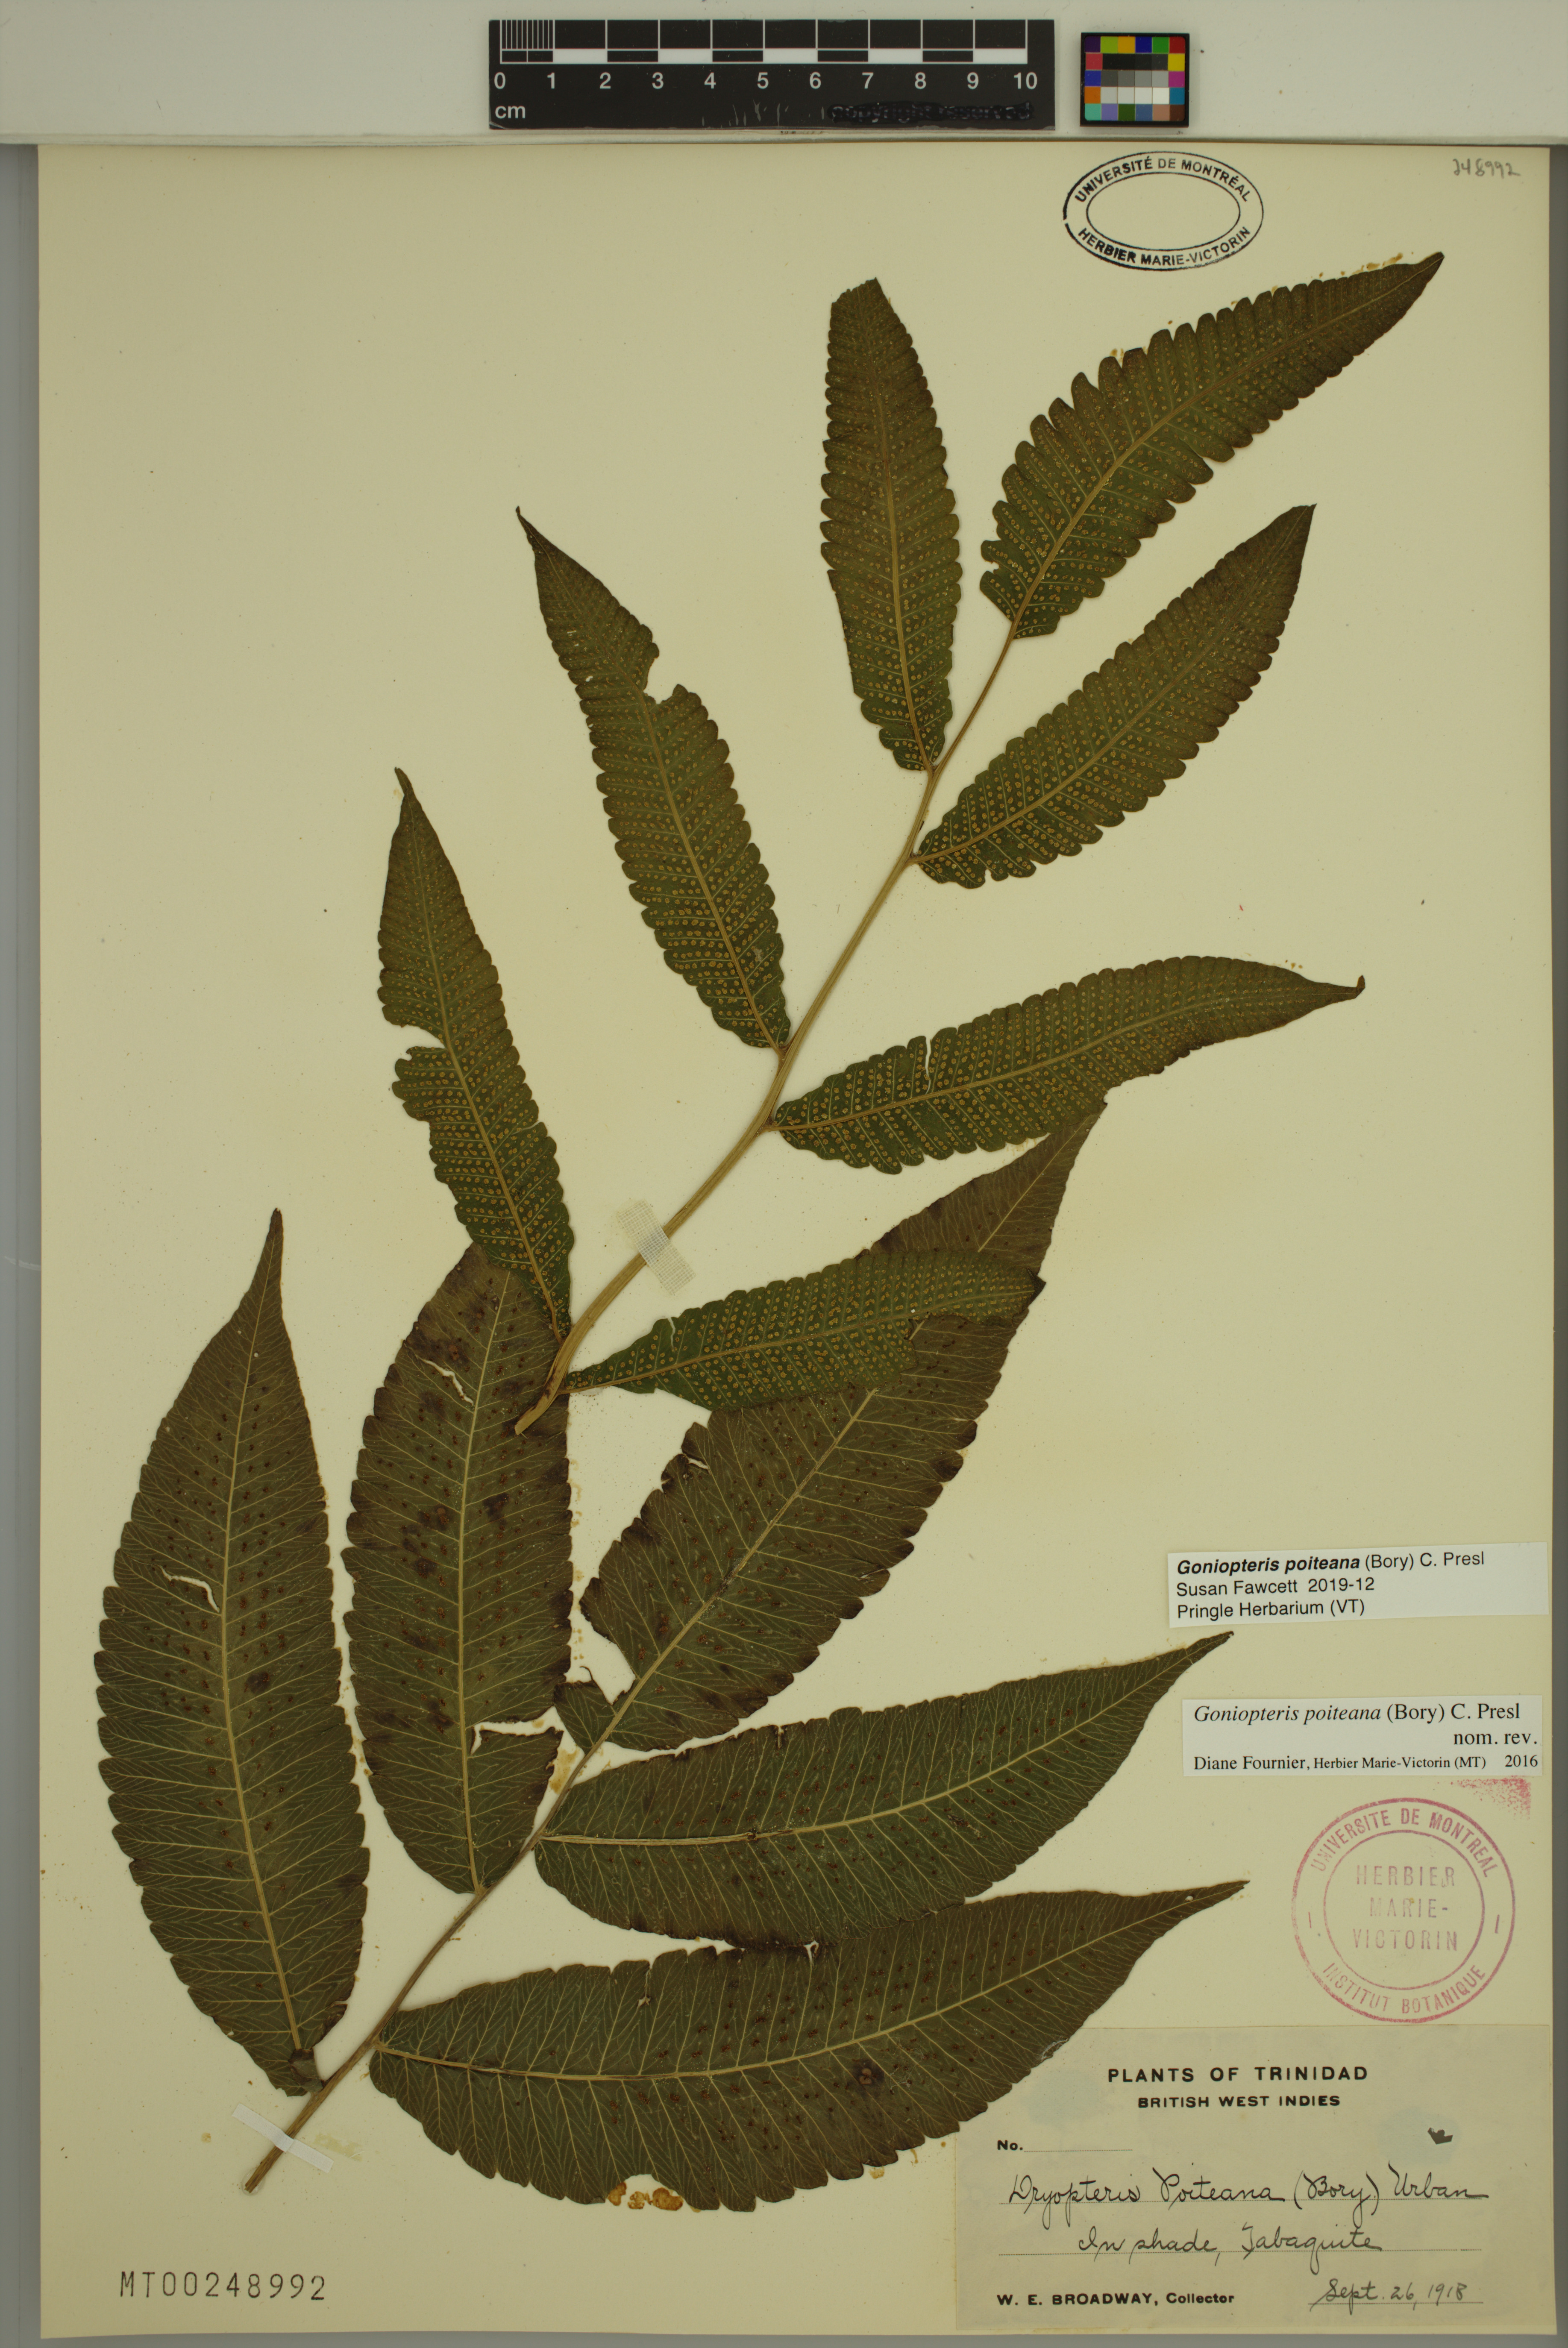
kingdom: Plantae
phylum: Tracheophyta
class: Polypodiopsida
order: Polypodiales
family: Thelypteridaceae
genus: Goniopteris
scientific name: Goniopteris poiteana
